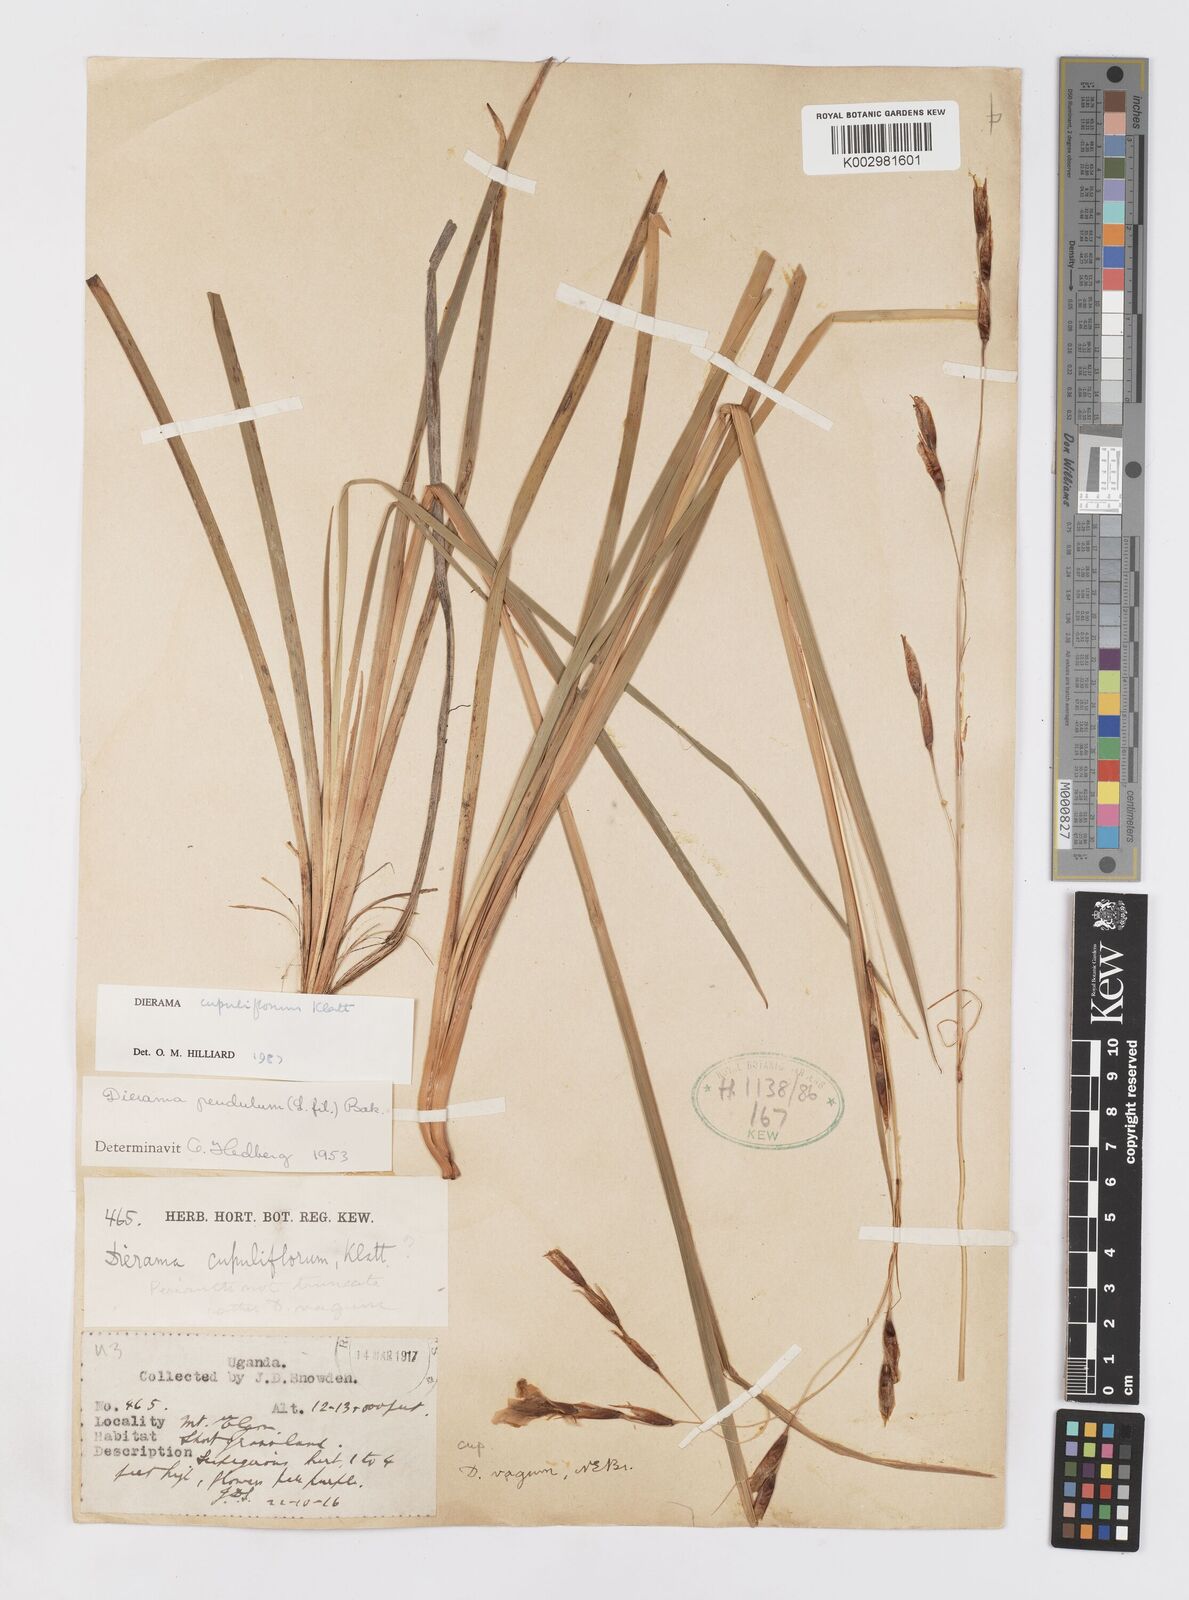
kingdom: Plantae
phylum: Tracheophyta
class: Liliopsida
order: Asparagales
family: Iridaceae
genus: Dierama
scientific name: Dierama cupuliflorum
